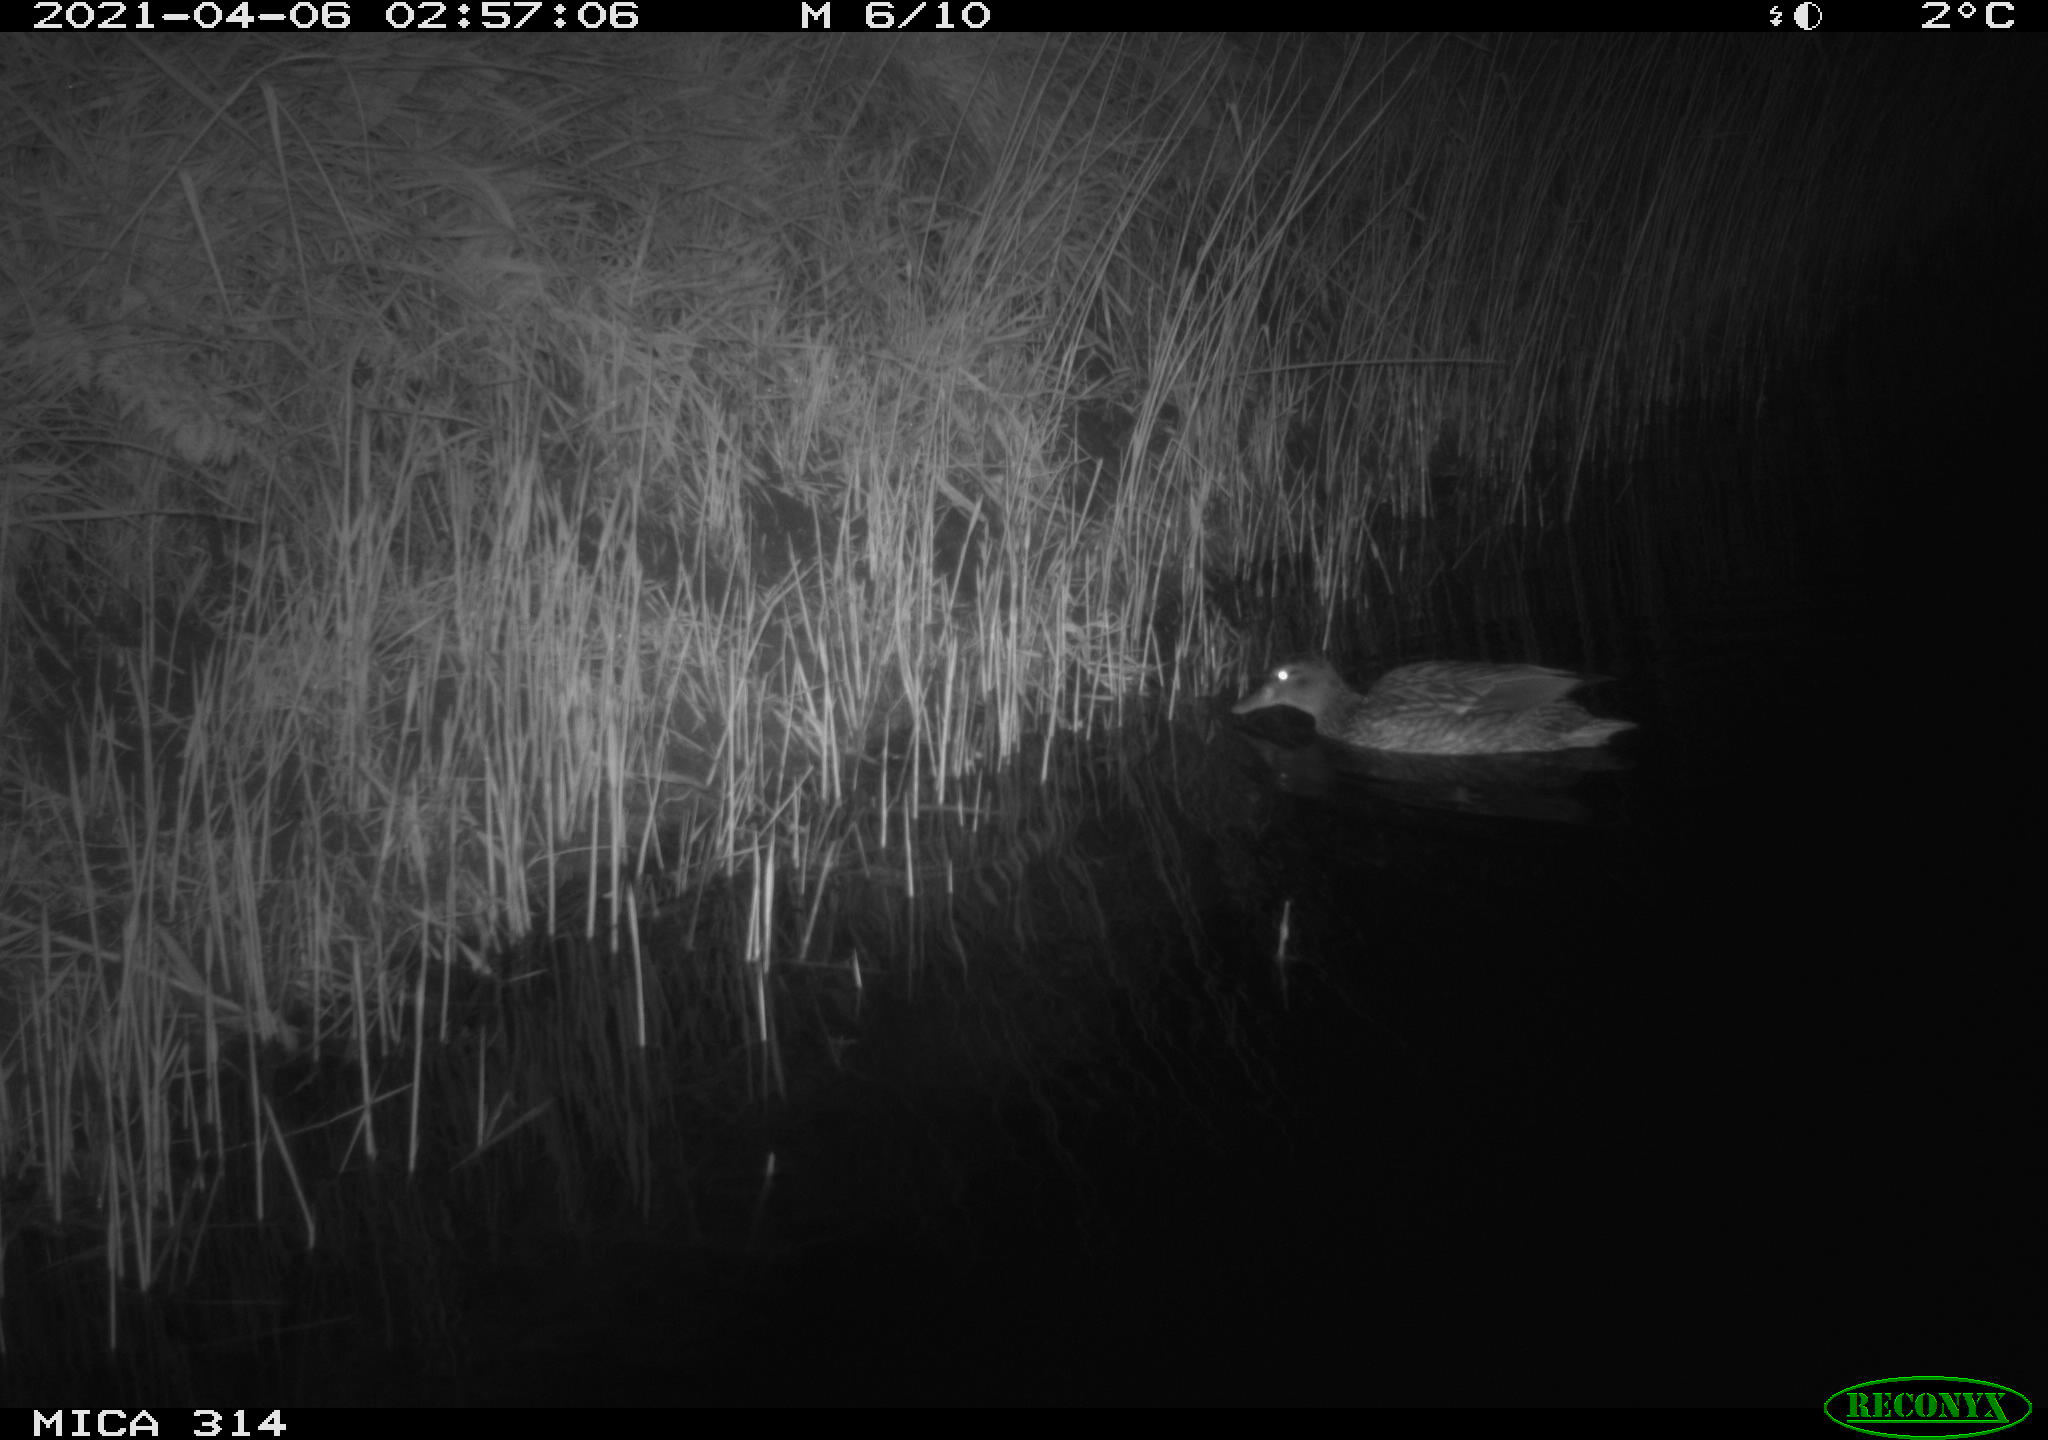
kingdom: Animalia
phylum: Chordata
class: Aves
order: Anseriformes
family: Anatidae
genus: Anas
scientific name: Anas platyrhynchos
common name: Mallard
